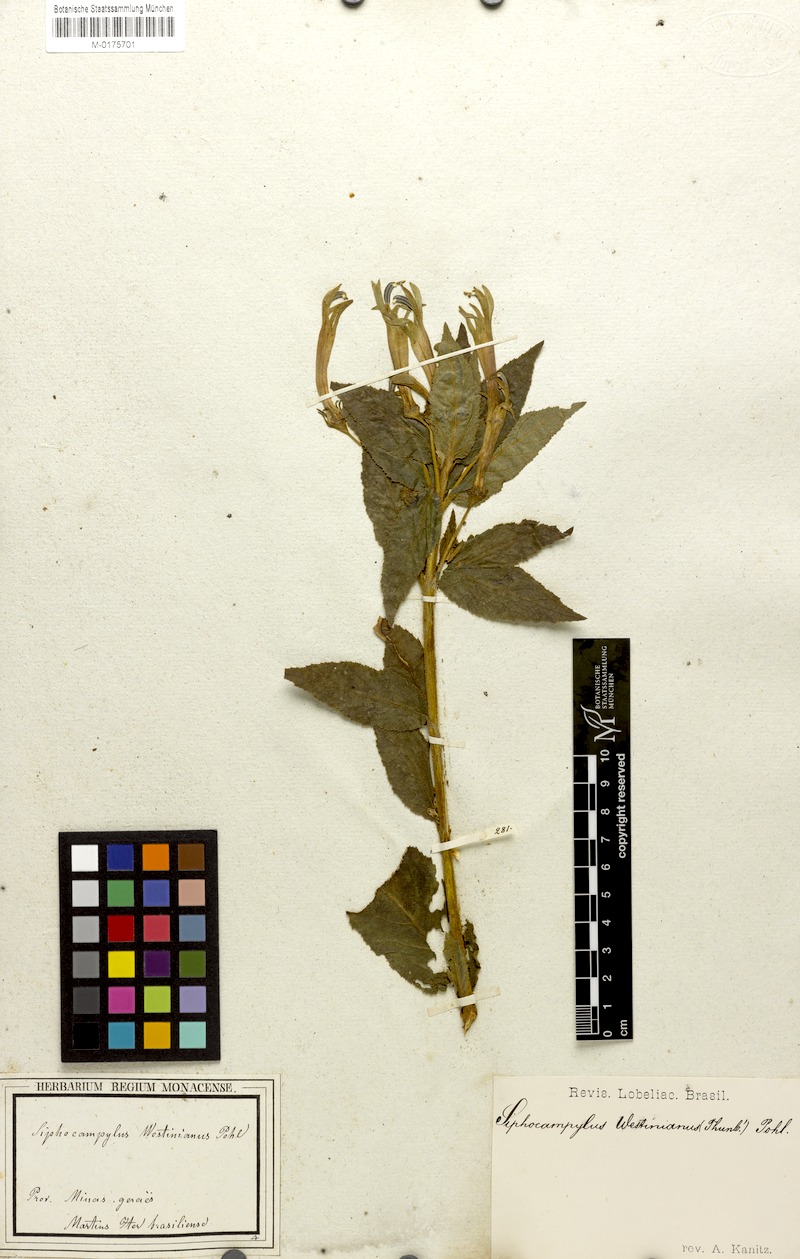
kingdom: Plantae
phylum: Tracheophyta
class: Magnoliopsida
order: Asterales
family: Campanulaceae
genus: Siphocampylus
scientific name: Siphocampylus westinianus
